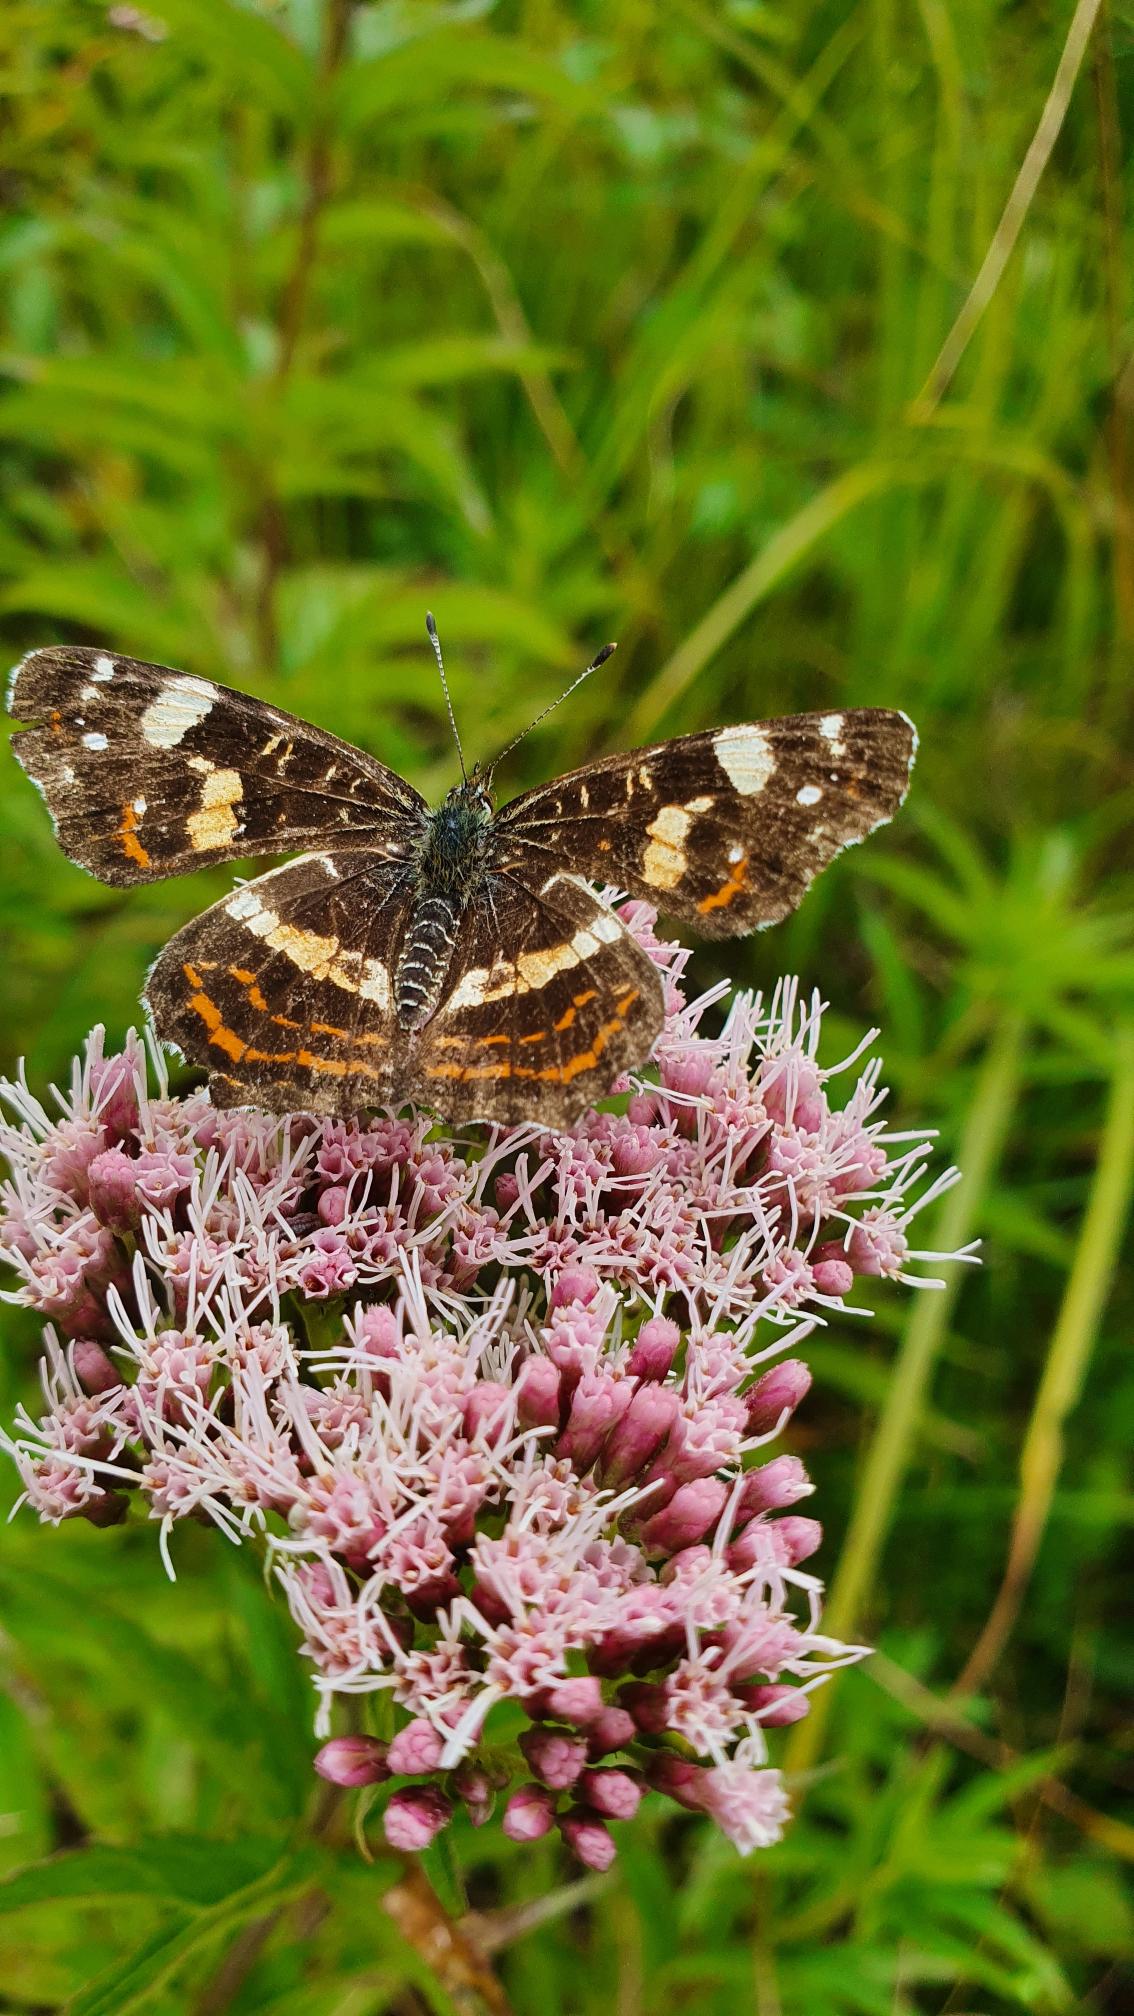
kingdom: Animalia
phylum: Arthropoda
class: Insecta
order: Lepidoptera
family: Nymphalidae
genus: Araschnia
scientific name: Araschnia levana
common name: Nældesommerfugl
